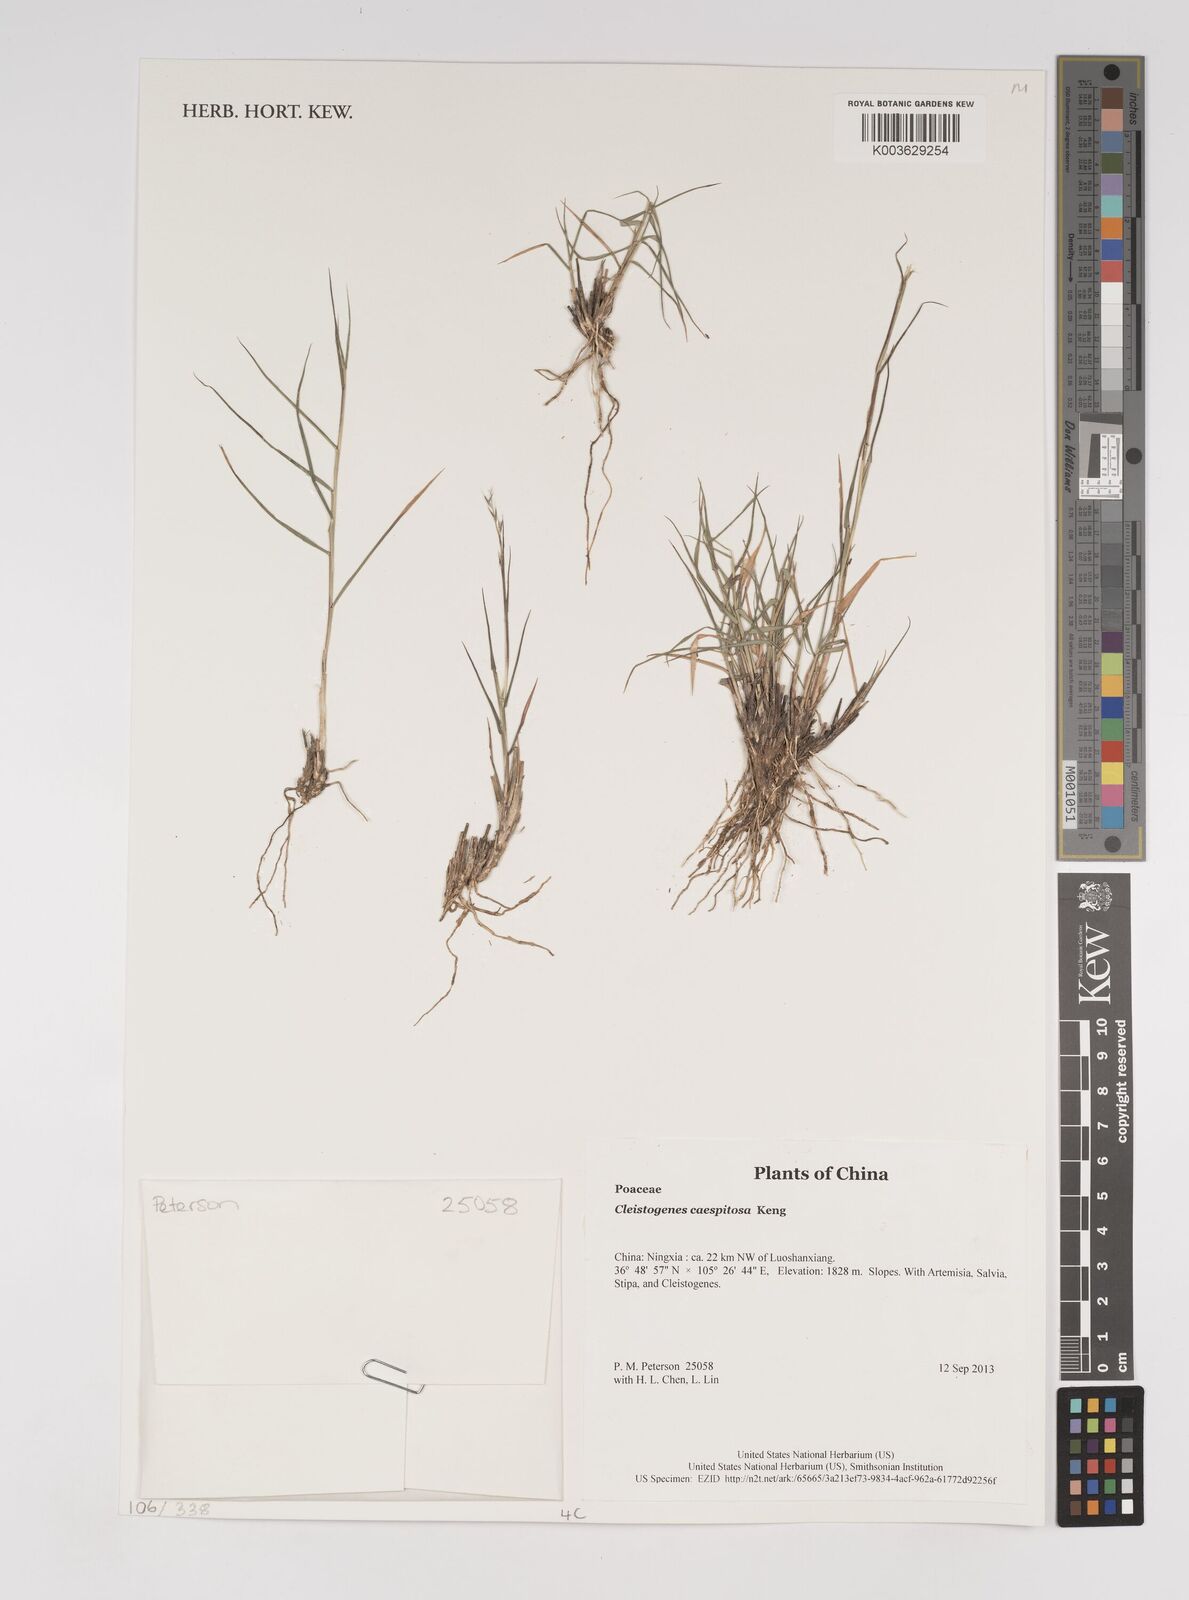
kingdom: Plantae
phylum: Tracheophyta
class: Liliopsida
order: Poales
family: Poaceae
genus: Cleistogenes
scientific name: Cleistogenes caespitosa
